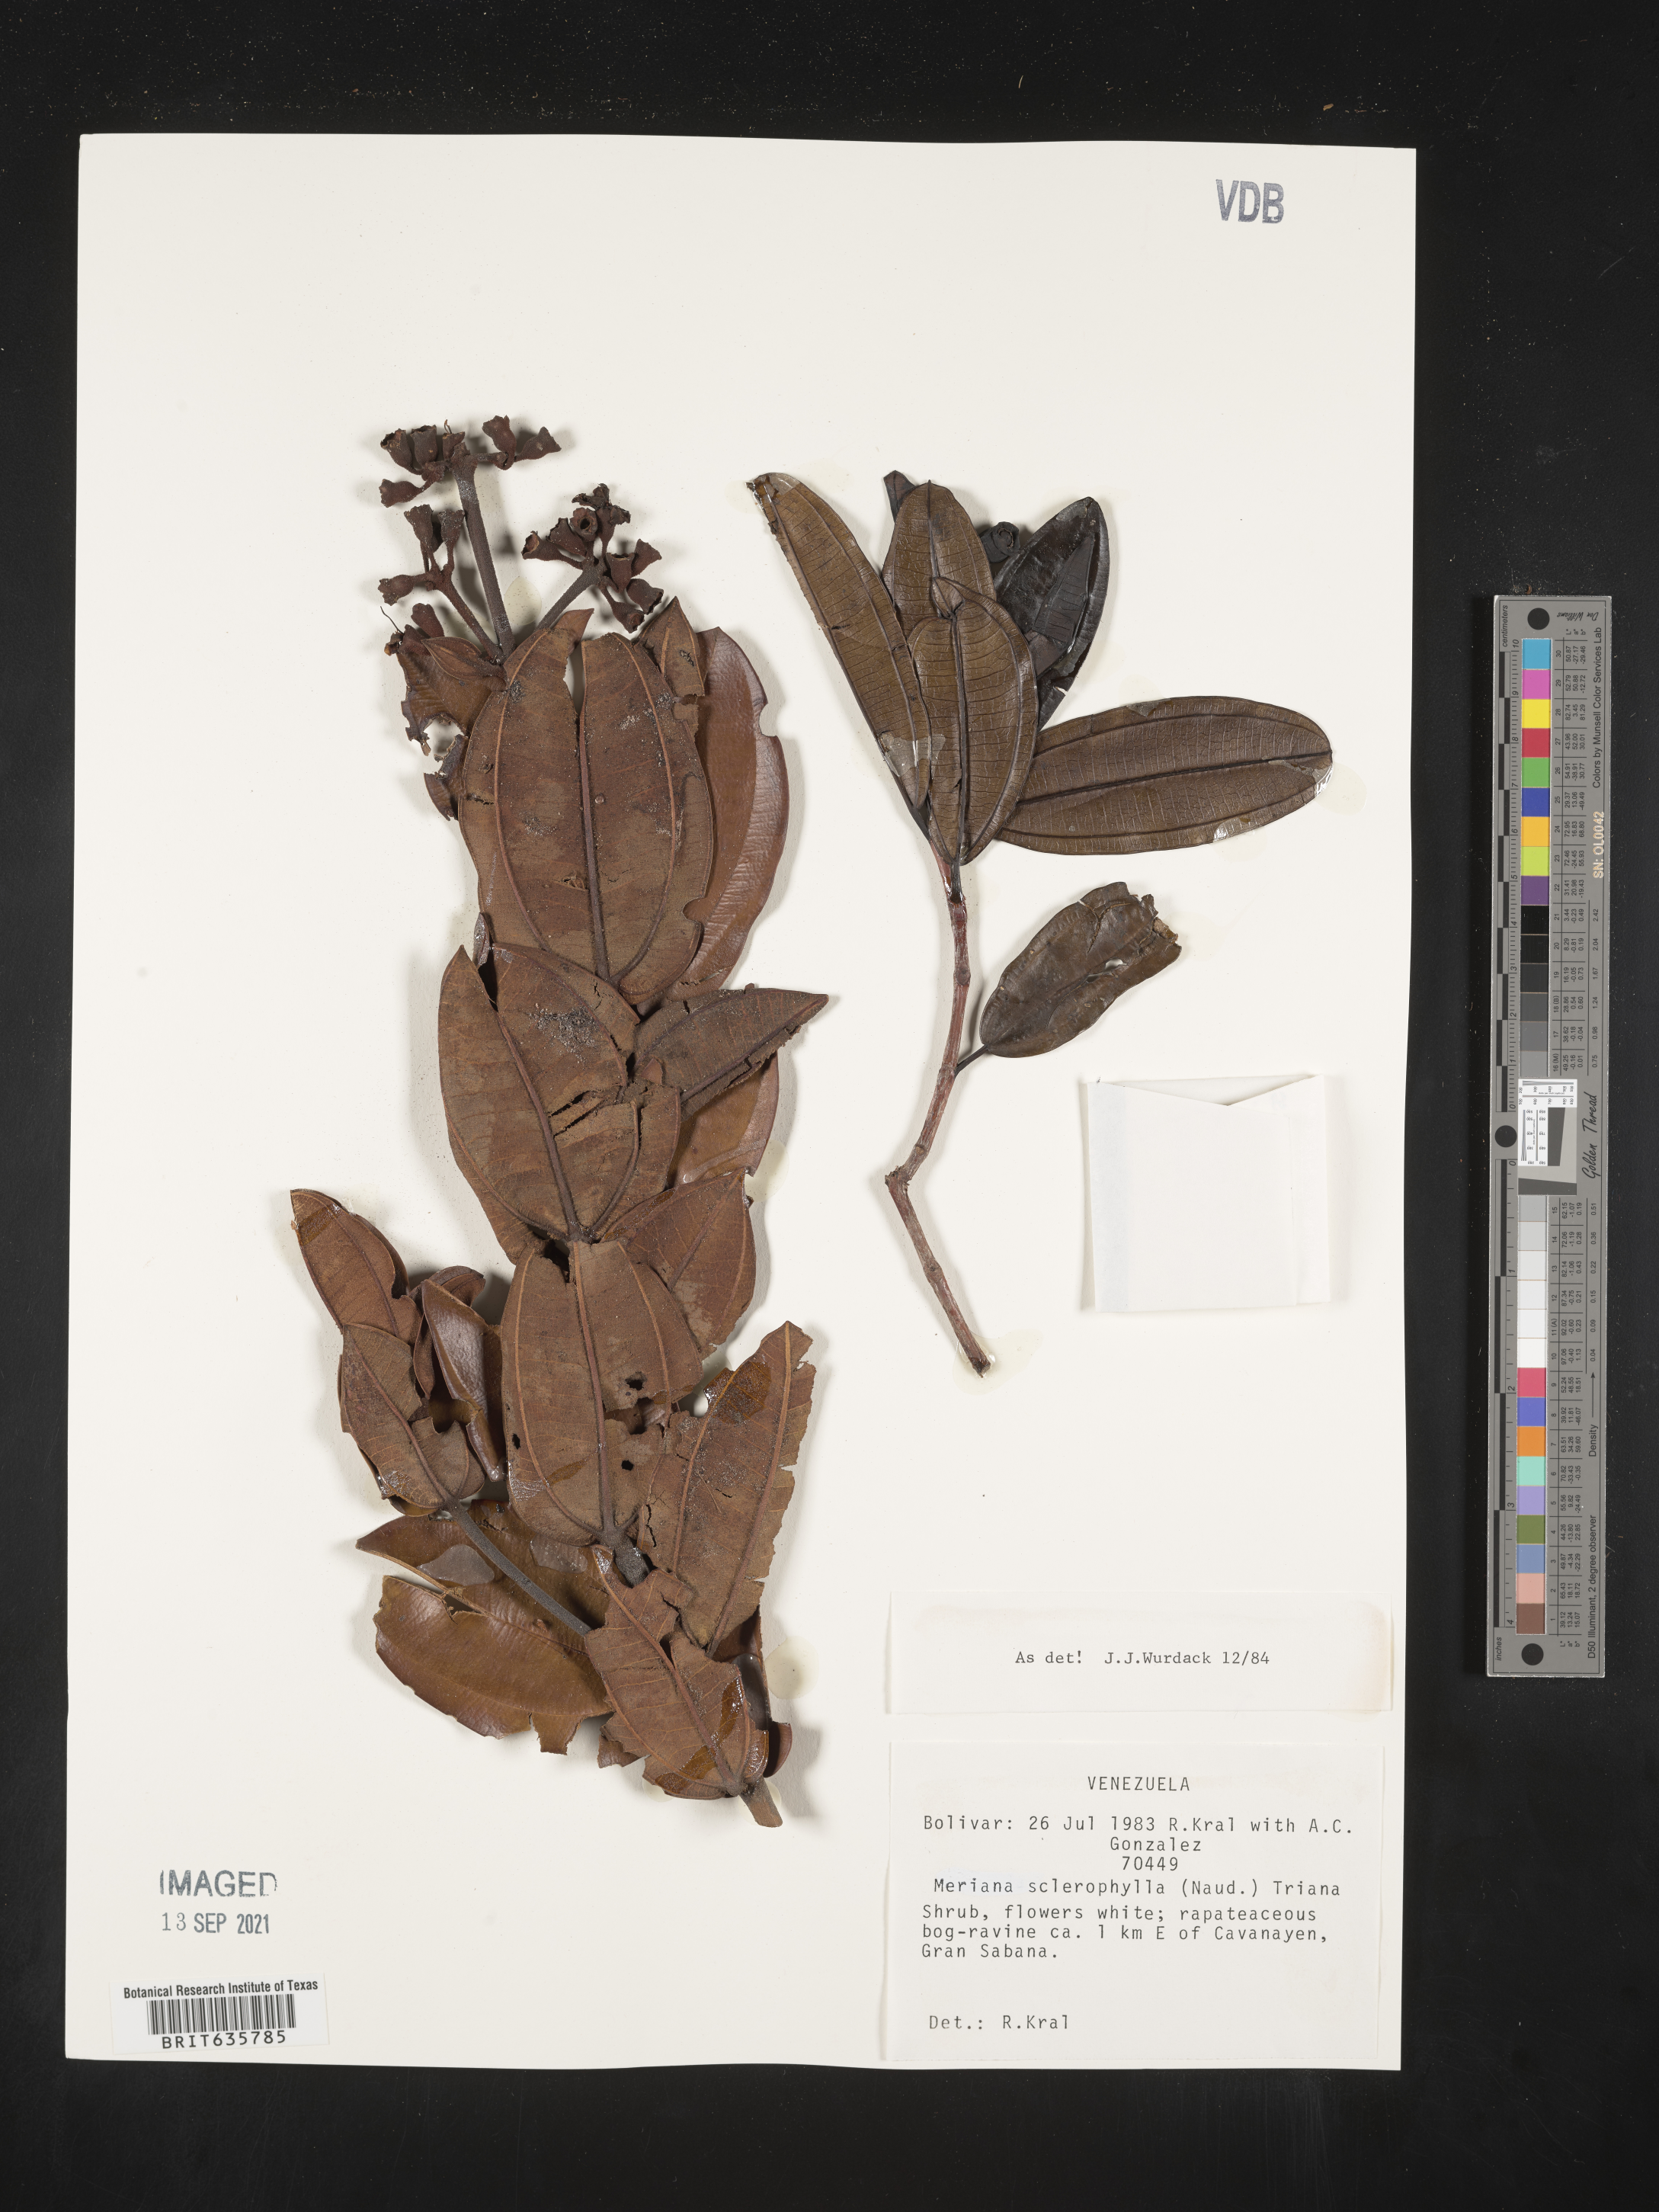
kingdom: Plantae
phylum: Tracheophyta
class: Magnoliopsida
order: Myrtales
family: Melastomataceae
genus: Meriania
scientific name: Meriania
